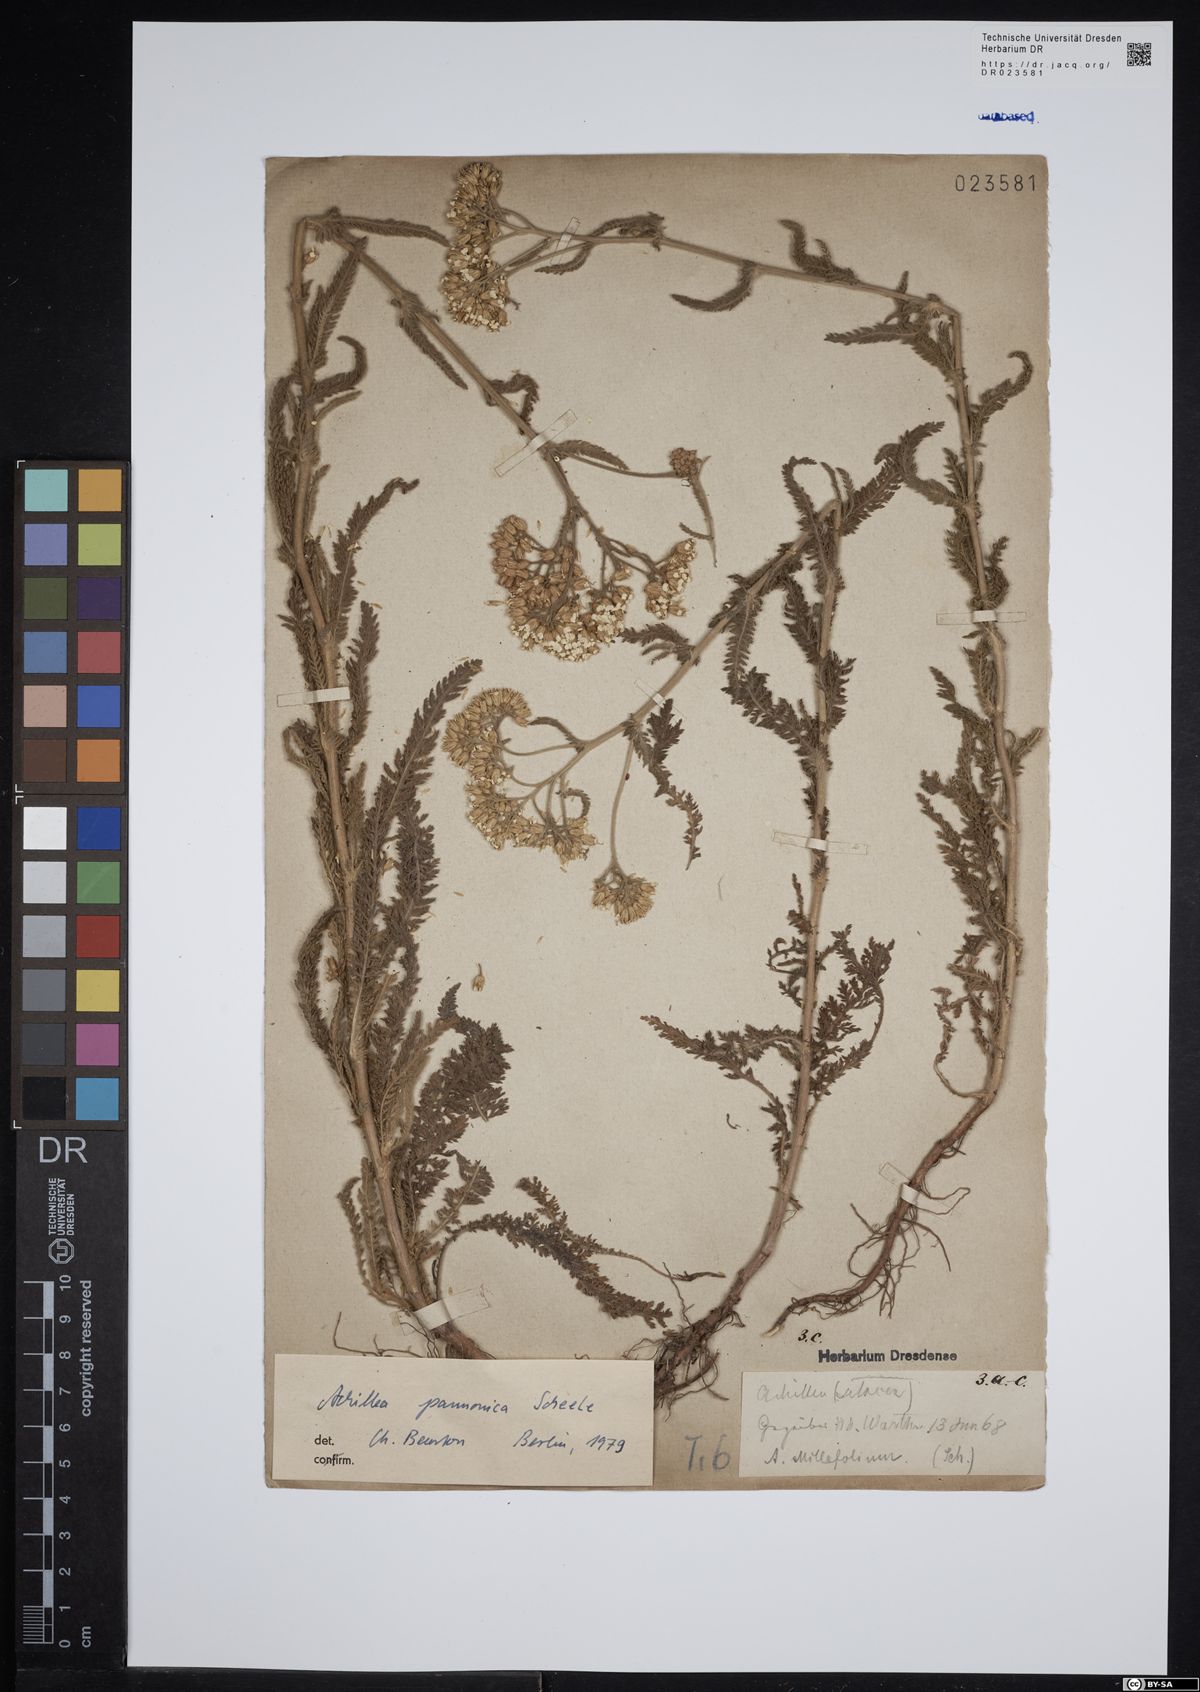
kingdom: Plantae
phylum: Tracheophyta
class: Magnoliopsida
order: Asterales
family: Asteraceae
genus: Achillea
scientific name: Achillea pannonica
